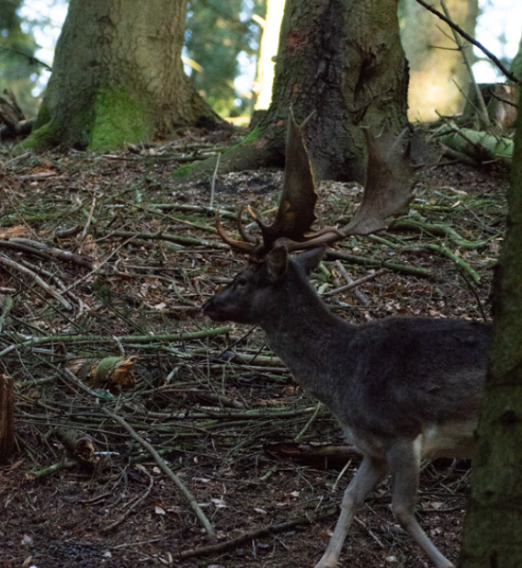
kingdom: Animalia
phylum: Chordata
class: Mammalia
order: Artiodactyla
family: Cervidae
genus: Dama
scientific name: Dama dama
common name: Dådyr
